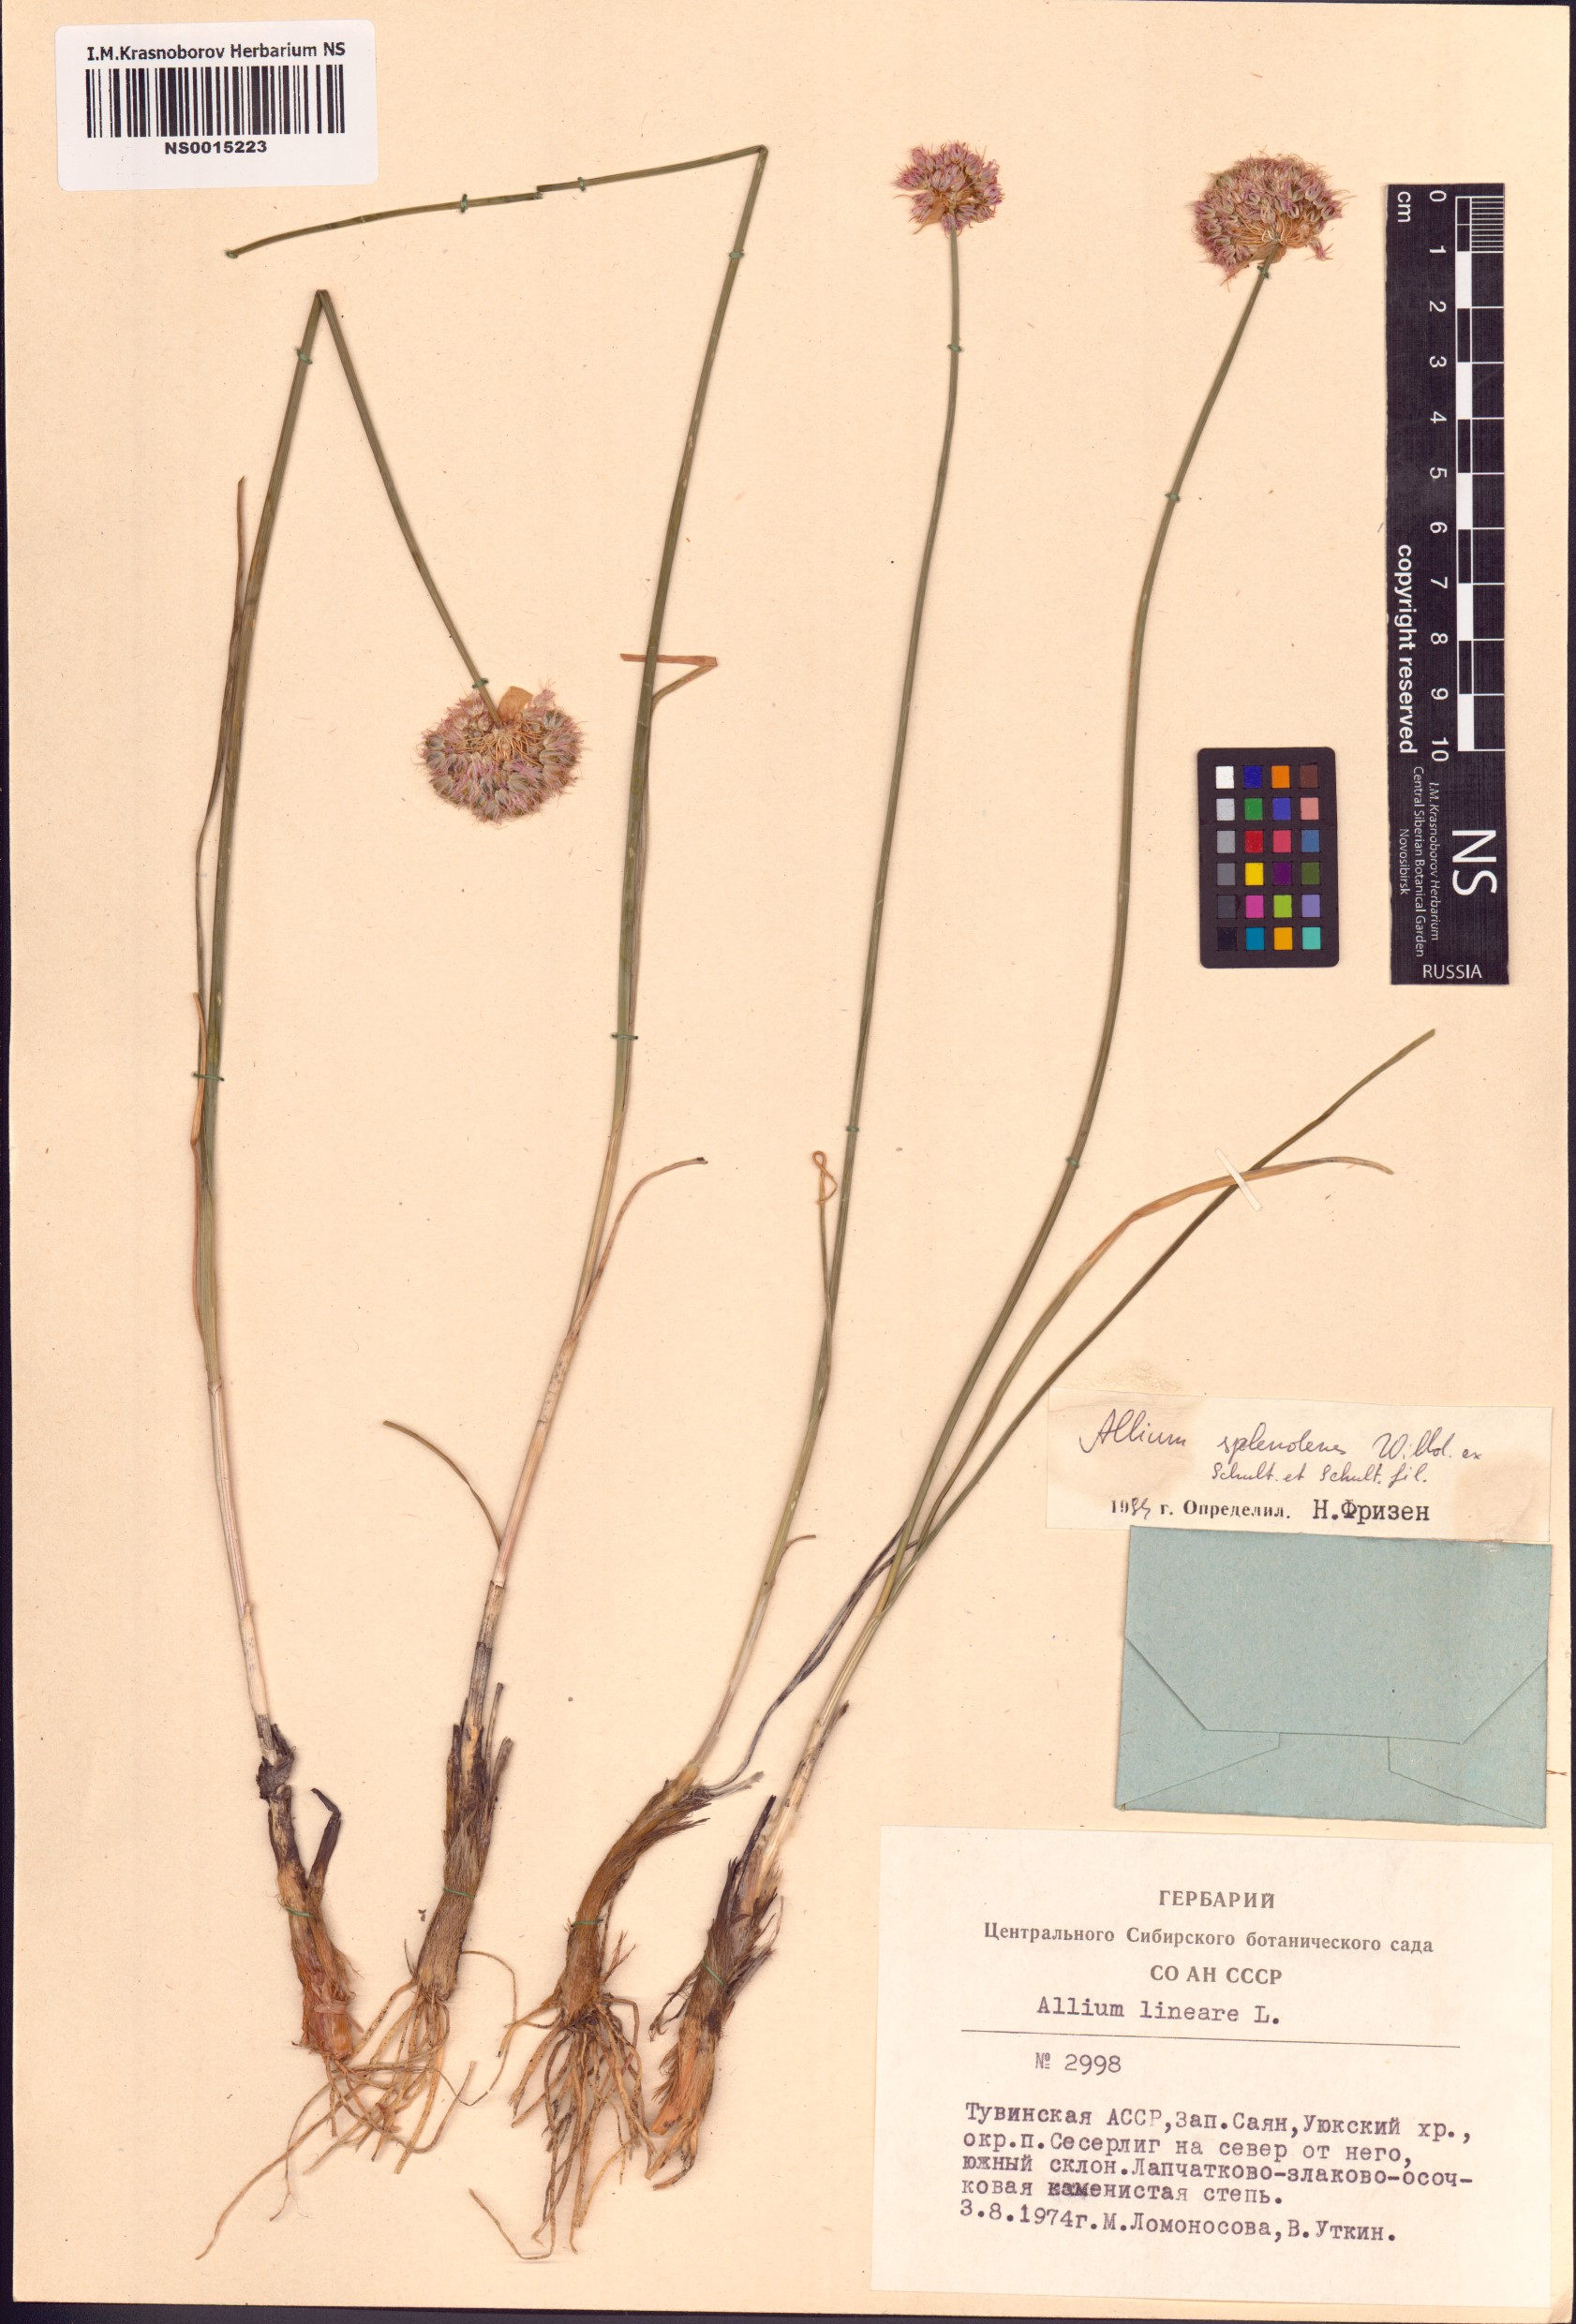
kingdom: Plantae
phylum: Tracheophyta
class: Liliopsida
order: Asparagales
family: Amaryllidaceae
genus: Allium
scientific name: Allium splendens
